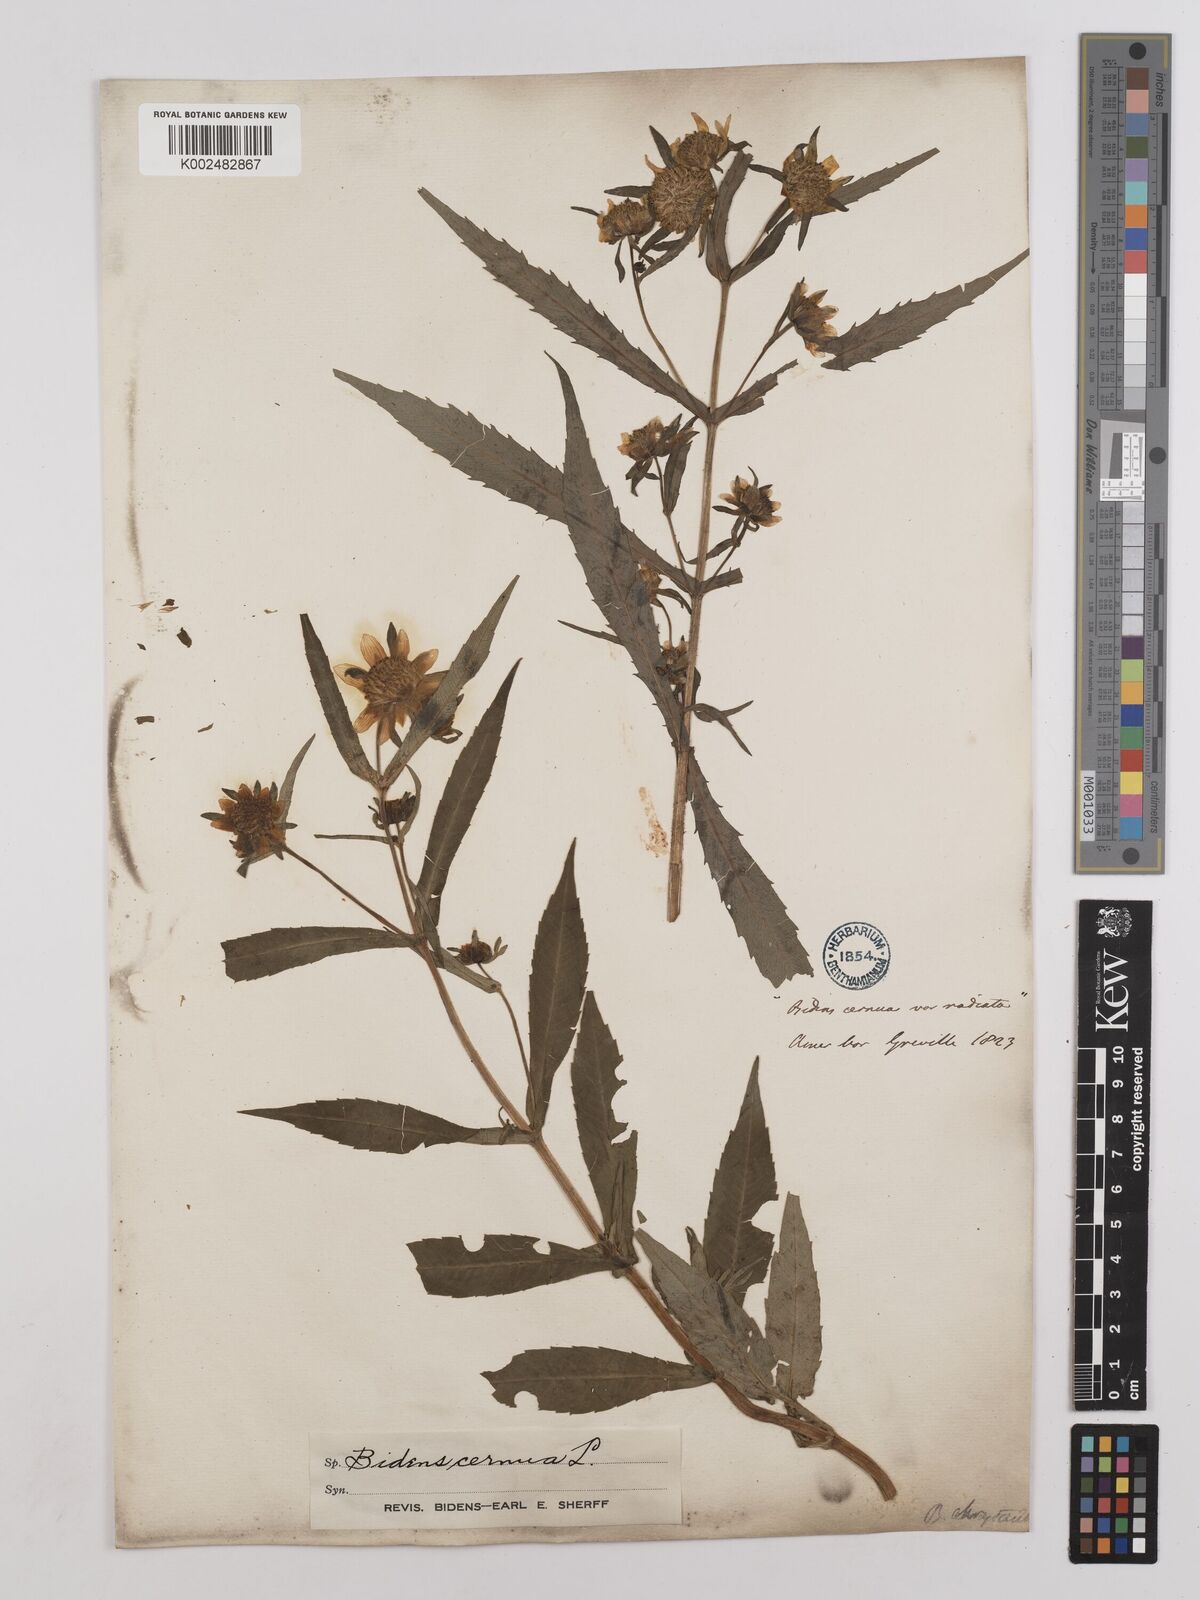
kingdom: Plantae
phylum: Tracheophyta
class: Magnoliopsida
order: Asterales
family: Asteraceae
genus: Bidens
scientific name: Bidens
